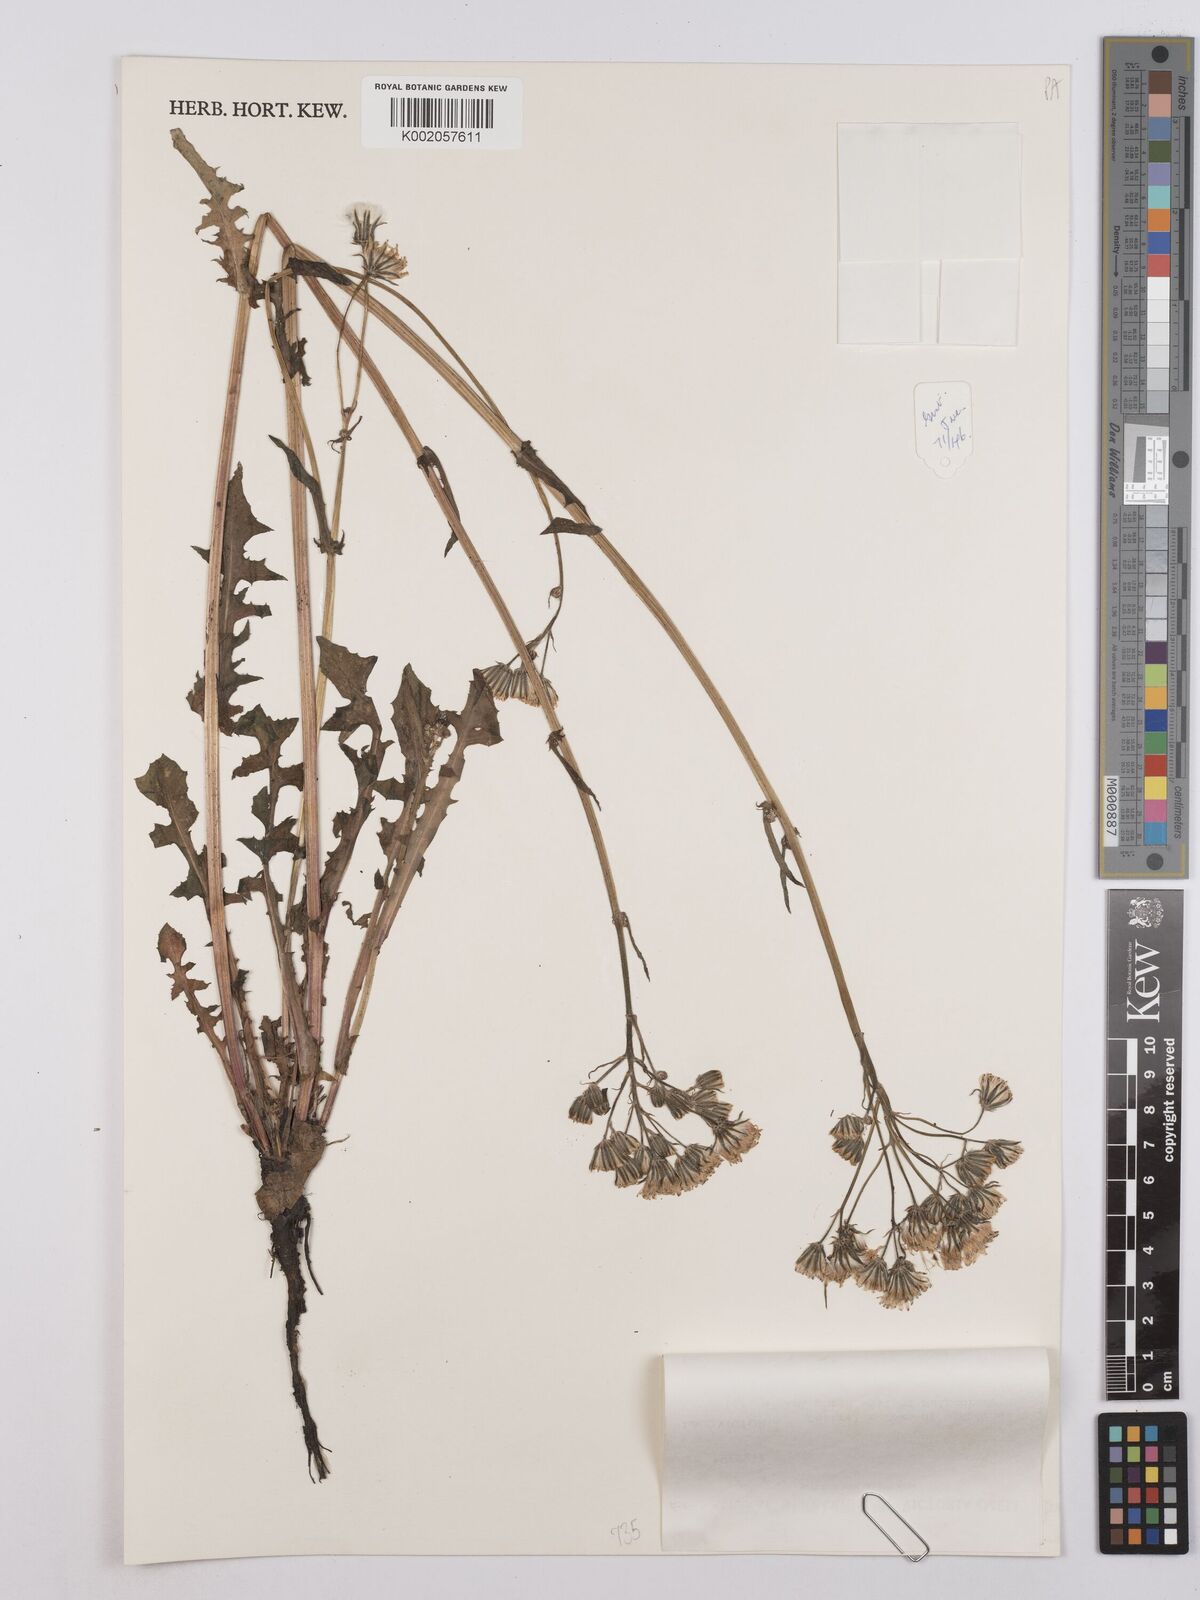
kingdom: Plantae
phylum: Tracheophyta
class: Magnoliopsida
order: Asterales
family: Asteraceae
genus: Crepis
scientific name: Crepis
